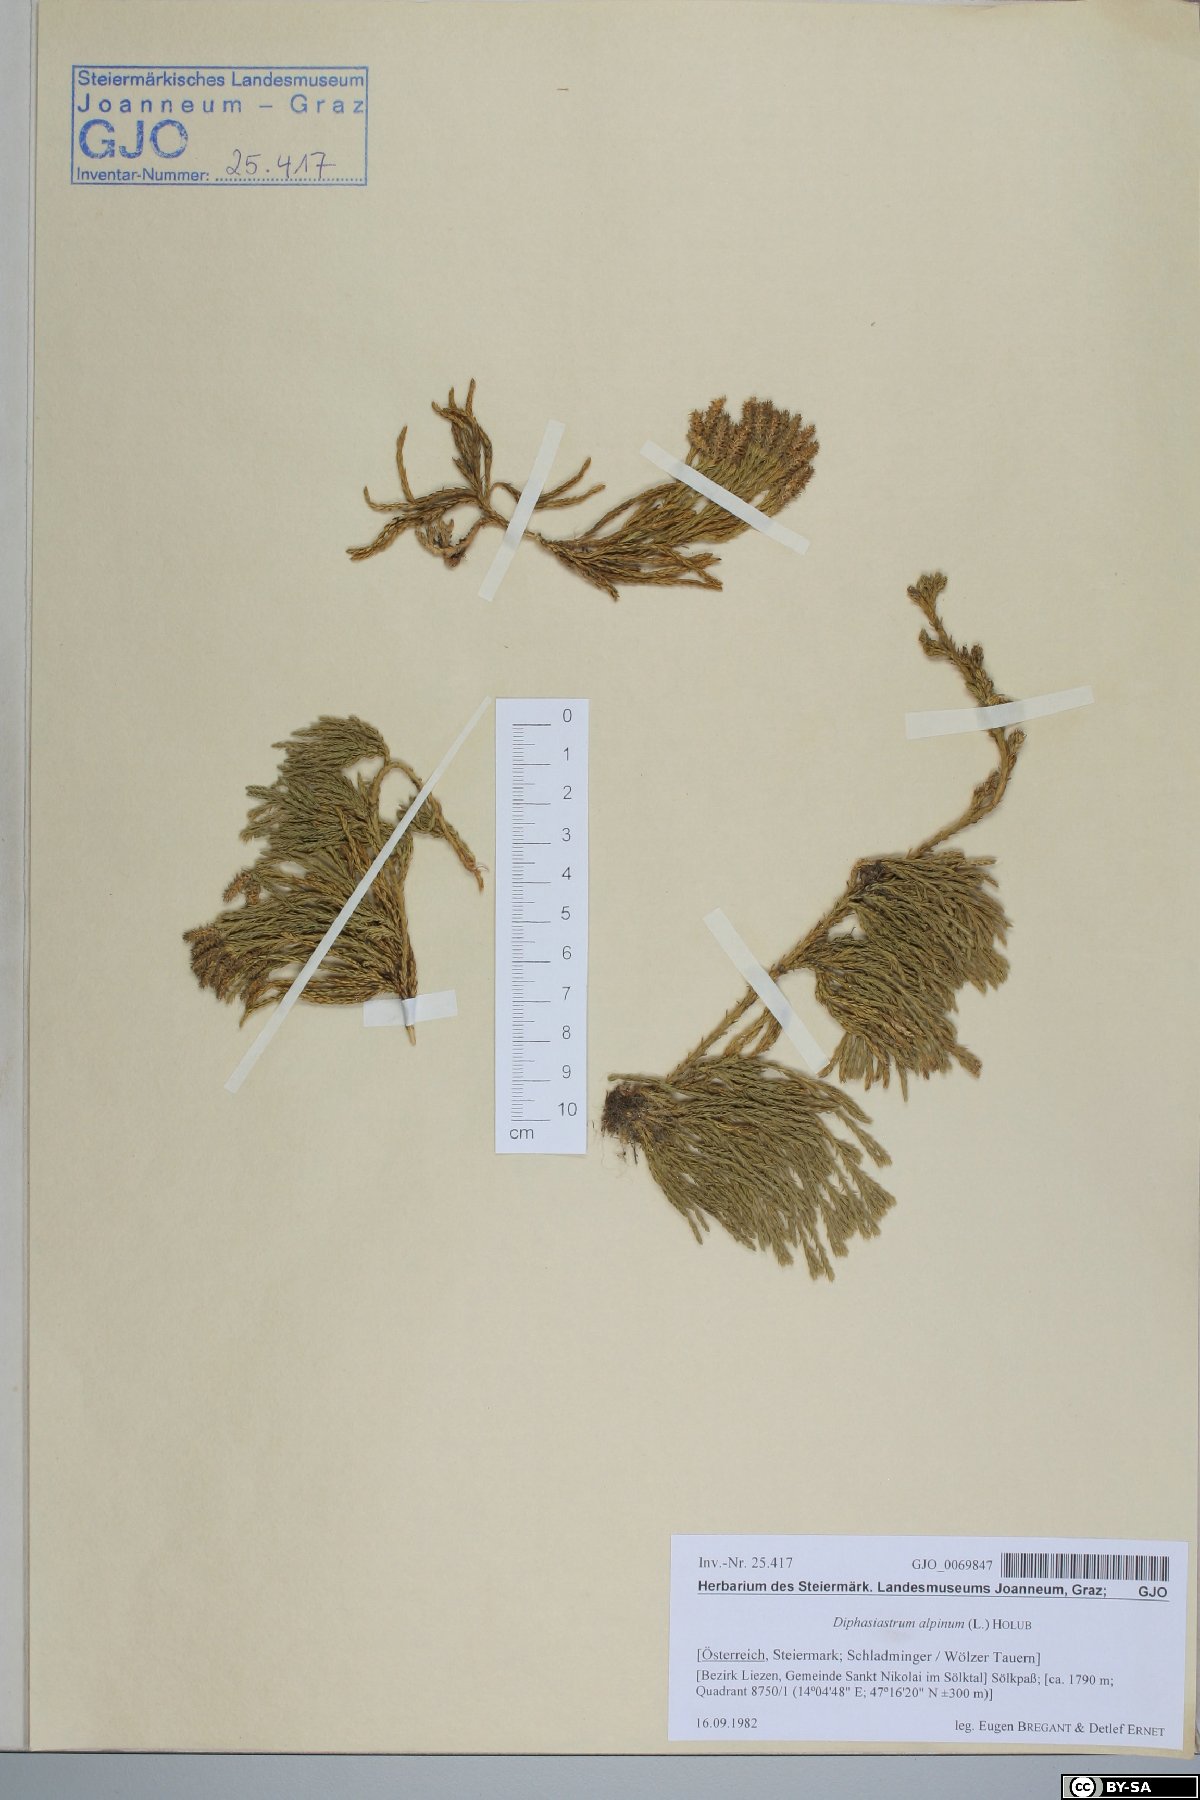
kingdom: Plantae
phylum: Tracheophyta
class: Lycopodiopsida
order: Lycopodiales
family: Lycopodiaceae
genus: Diphasiastrum
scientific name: Diphasiastrum alpinum
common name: Alpine clubmoss
